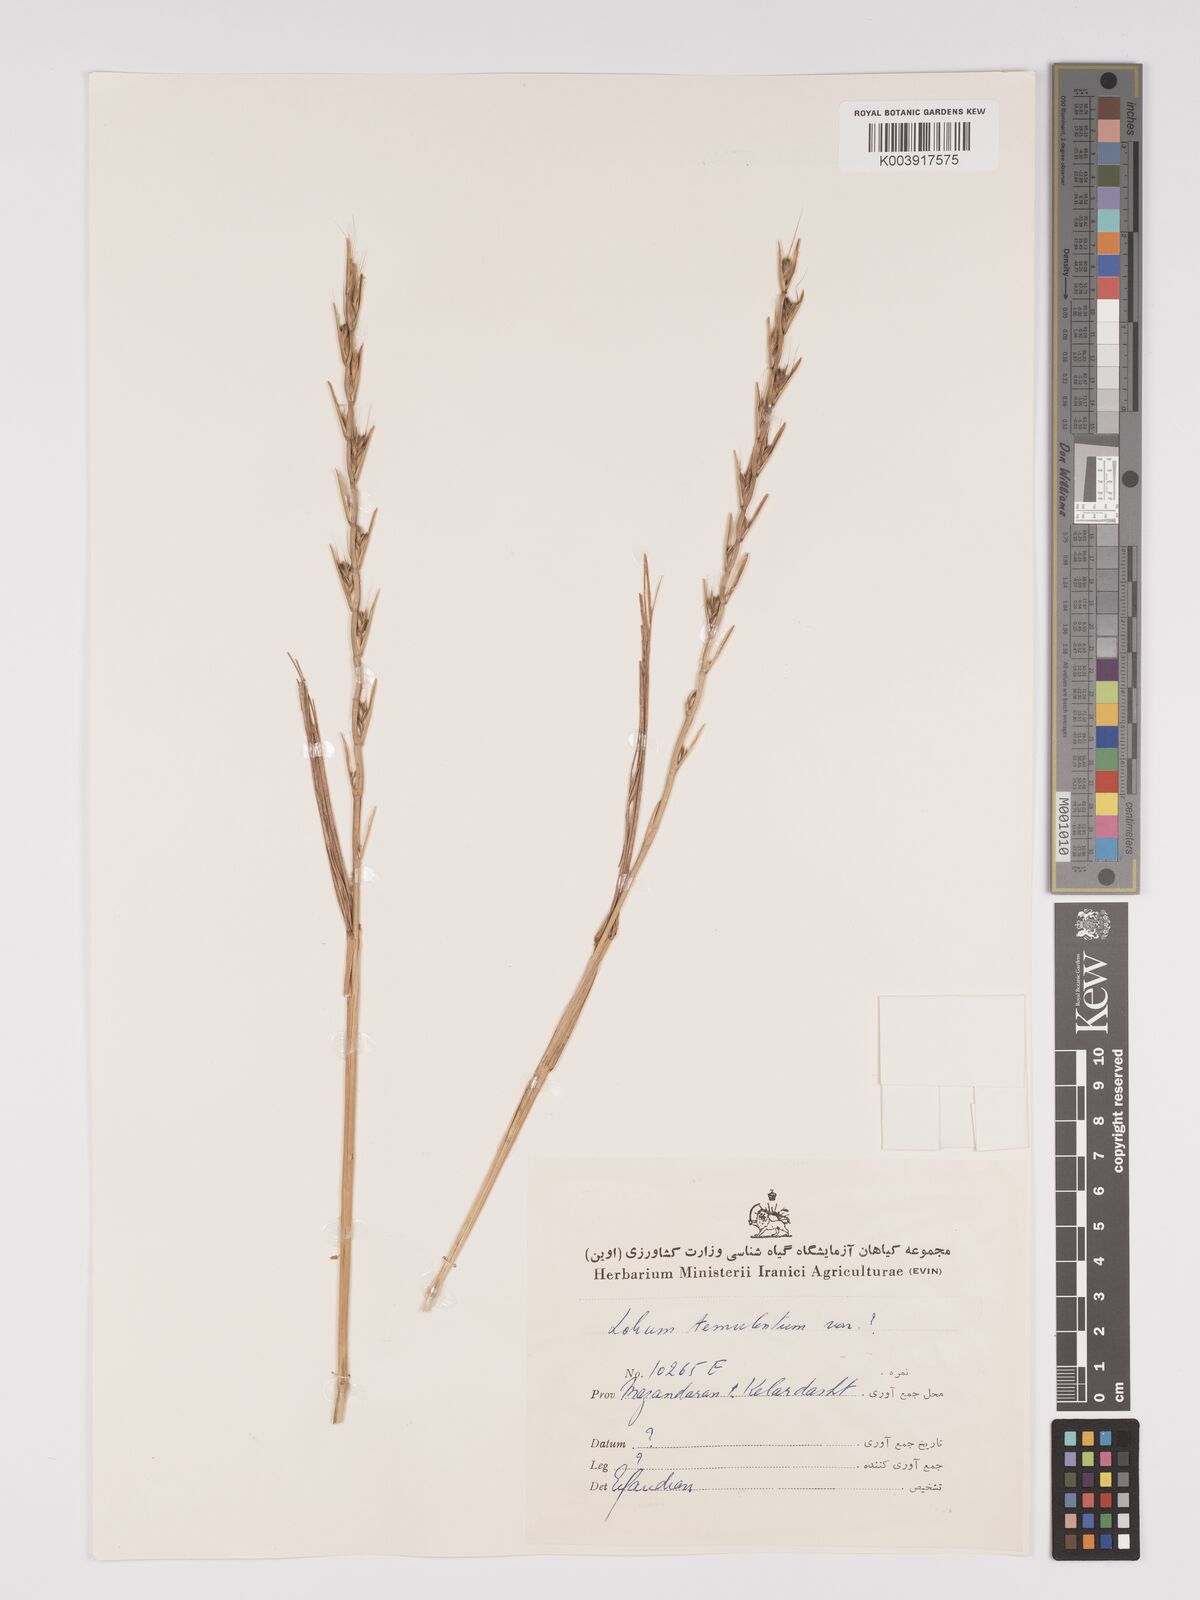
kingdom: Plantae
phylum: Tracheophyta
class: Liliopsida
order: Poales
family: Poaceae
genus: Lolium
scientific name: Lolium temulentum
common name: Darnel
